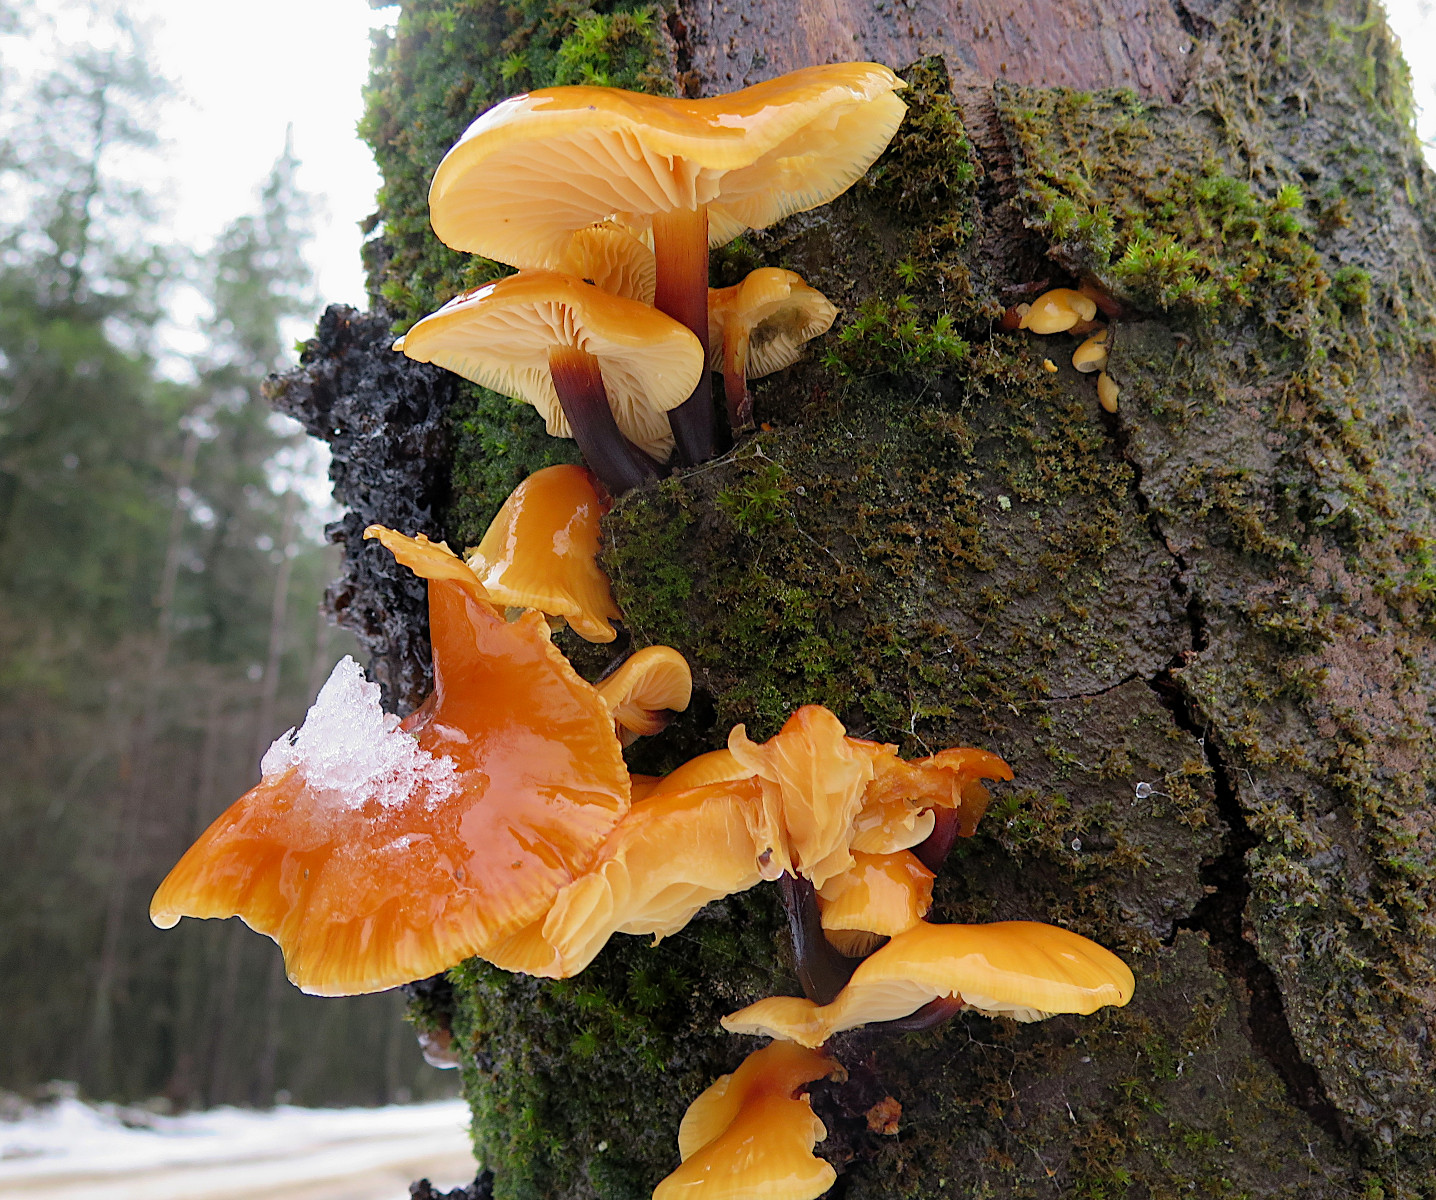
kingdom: Fungi
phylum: Basidiomycota
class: Agaricomycetes
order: Agaricales
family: Physalacriaceae
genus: Flammulina
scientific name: Flammulina velutipes
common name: gul fløjlsfod
